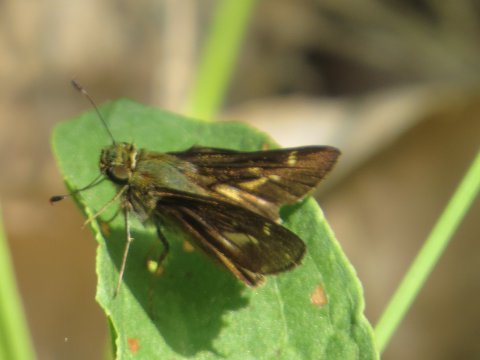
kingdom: Animalia
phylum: Arthropoda
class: Insecta
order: Lepidoptera
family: Hesperiidae
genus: Vernia
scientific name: Vernia verna
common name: Little Glassywing
